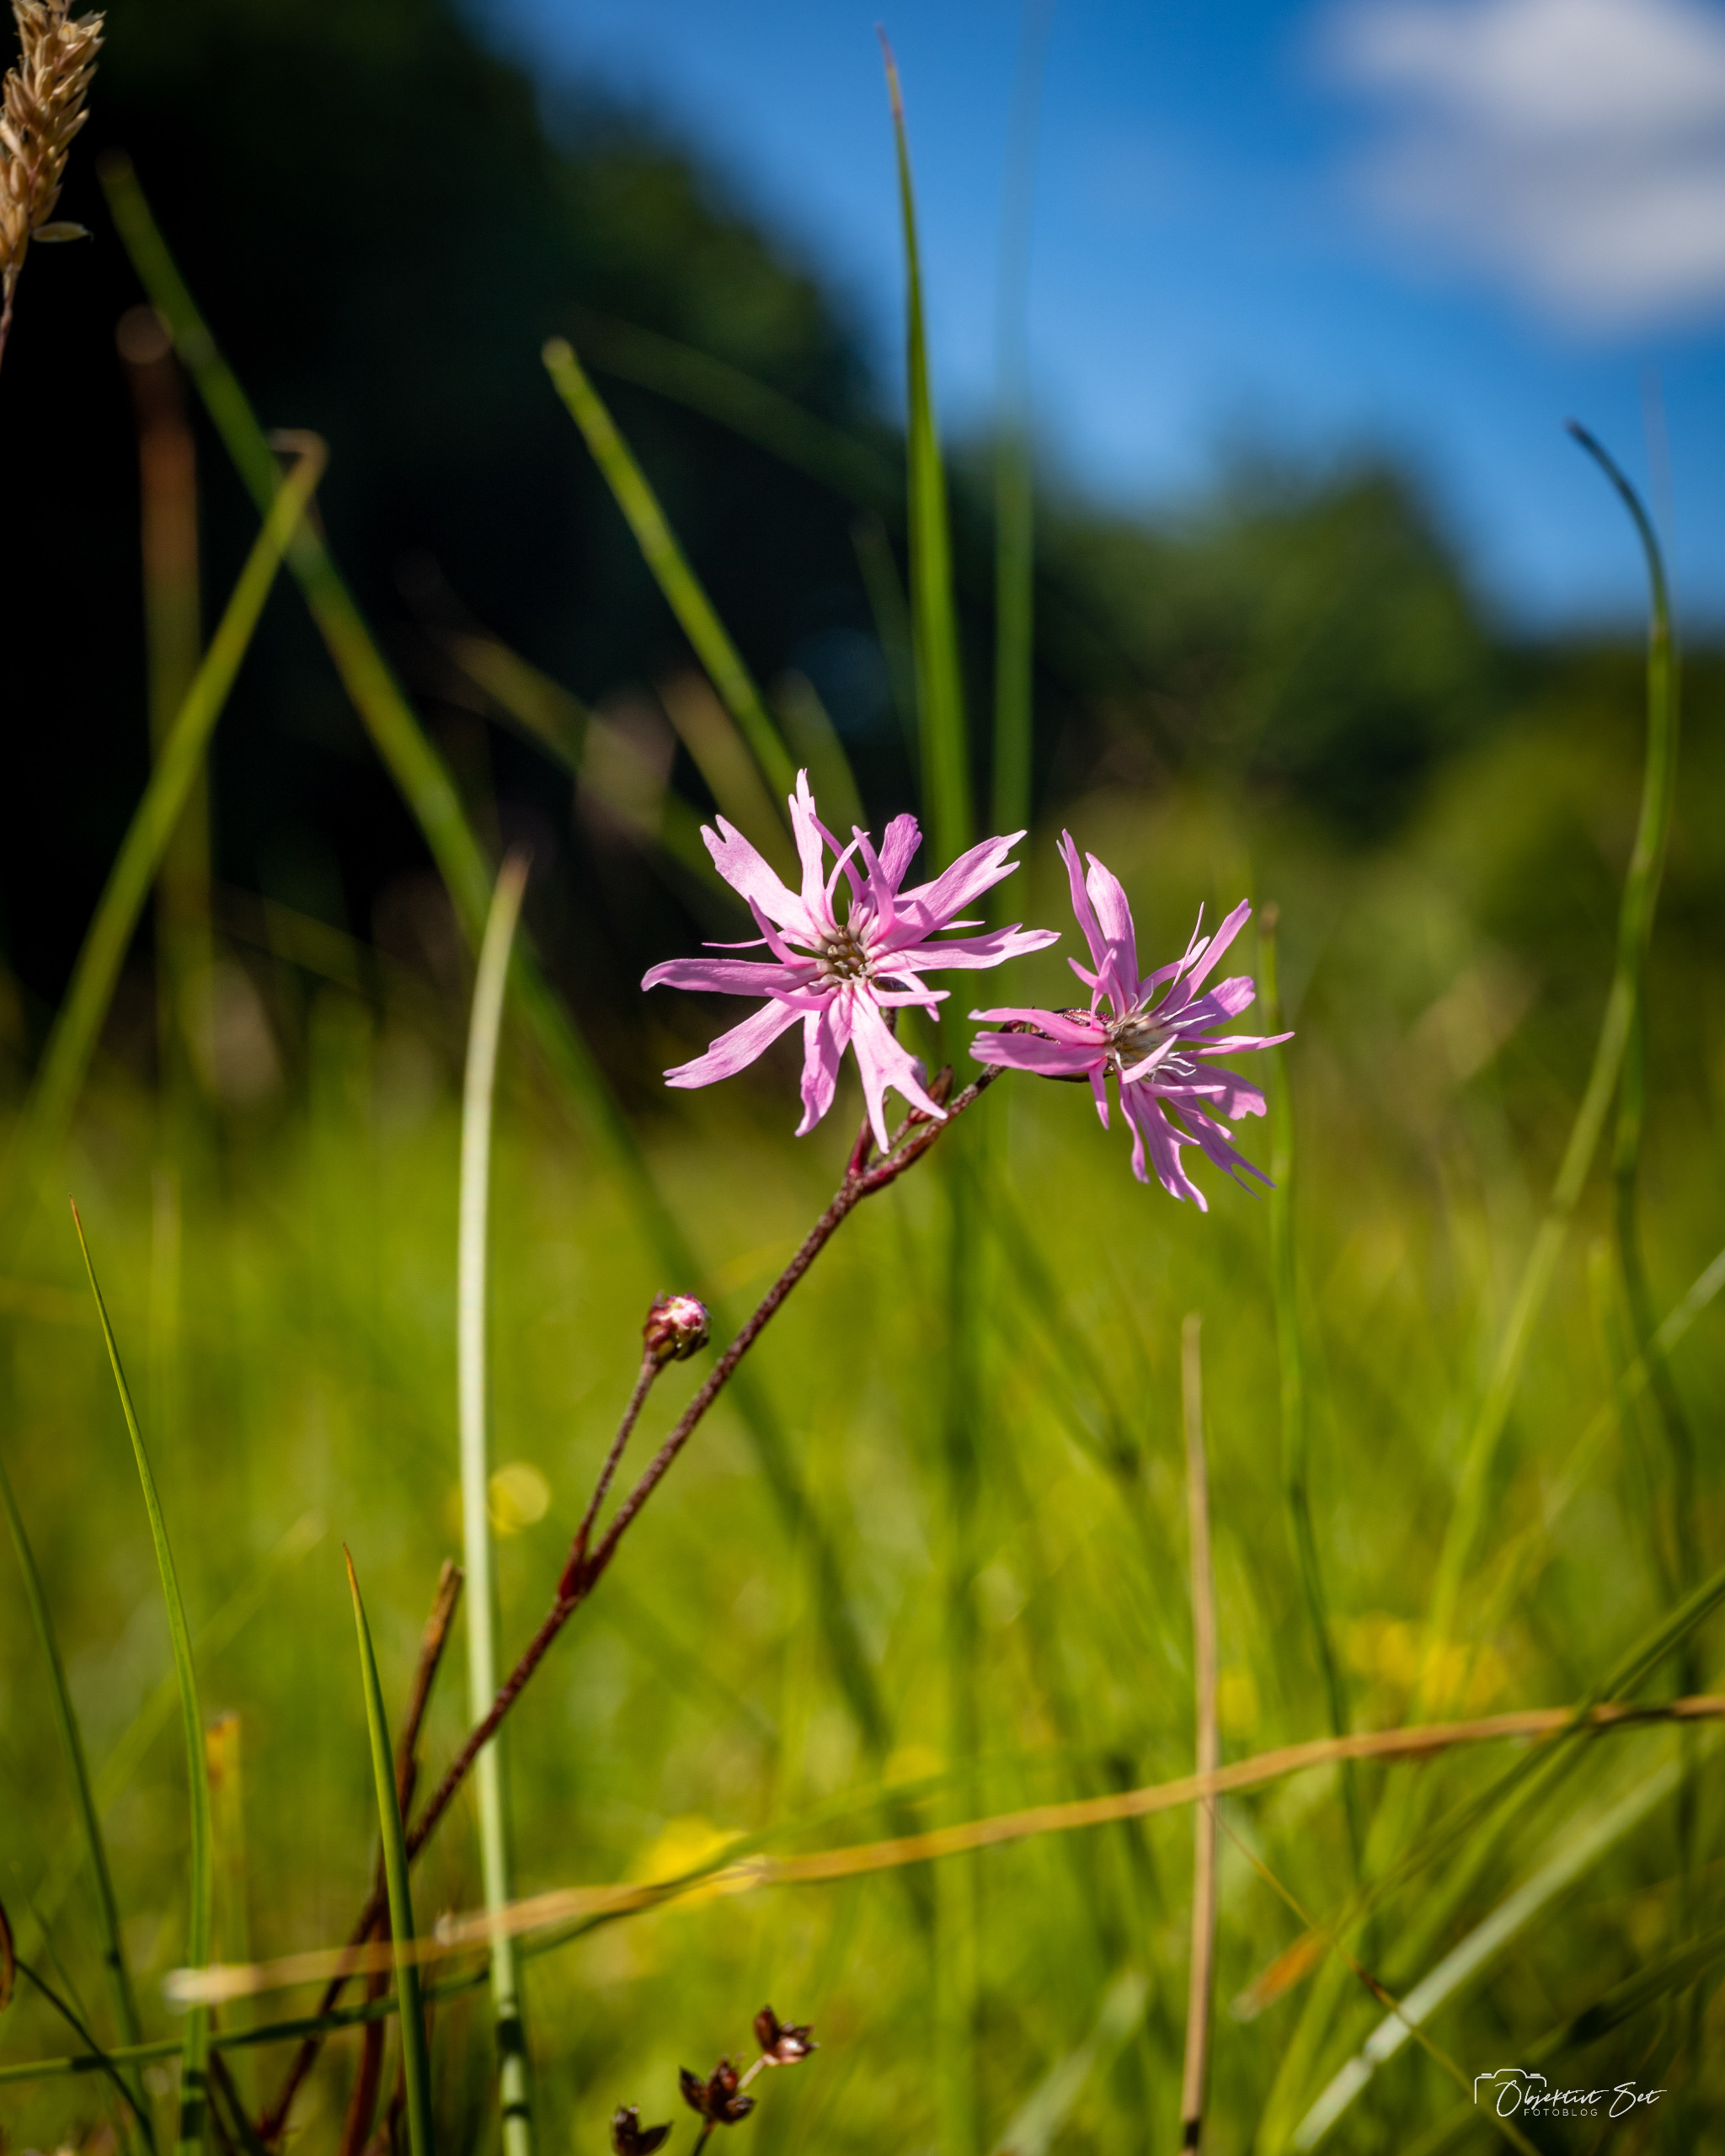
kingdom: Plantae
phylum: Tracheophyta
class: Magnoliopsida
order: Caryophyllales
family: Caryophyllaceae
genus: Silene
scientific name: Silene flos-cuculi
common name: Trævlekrone
